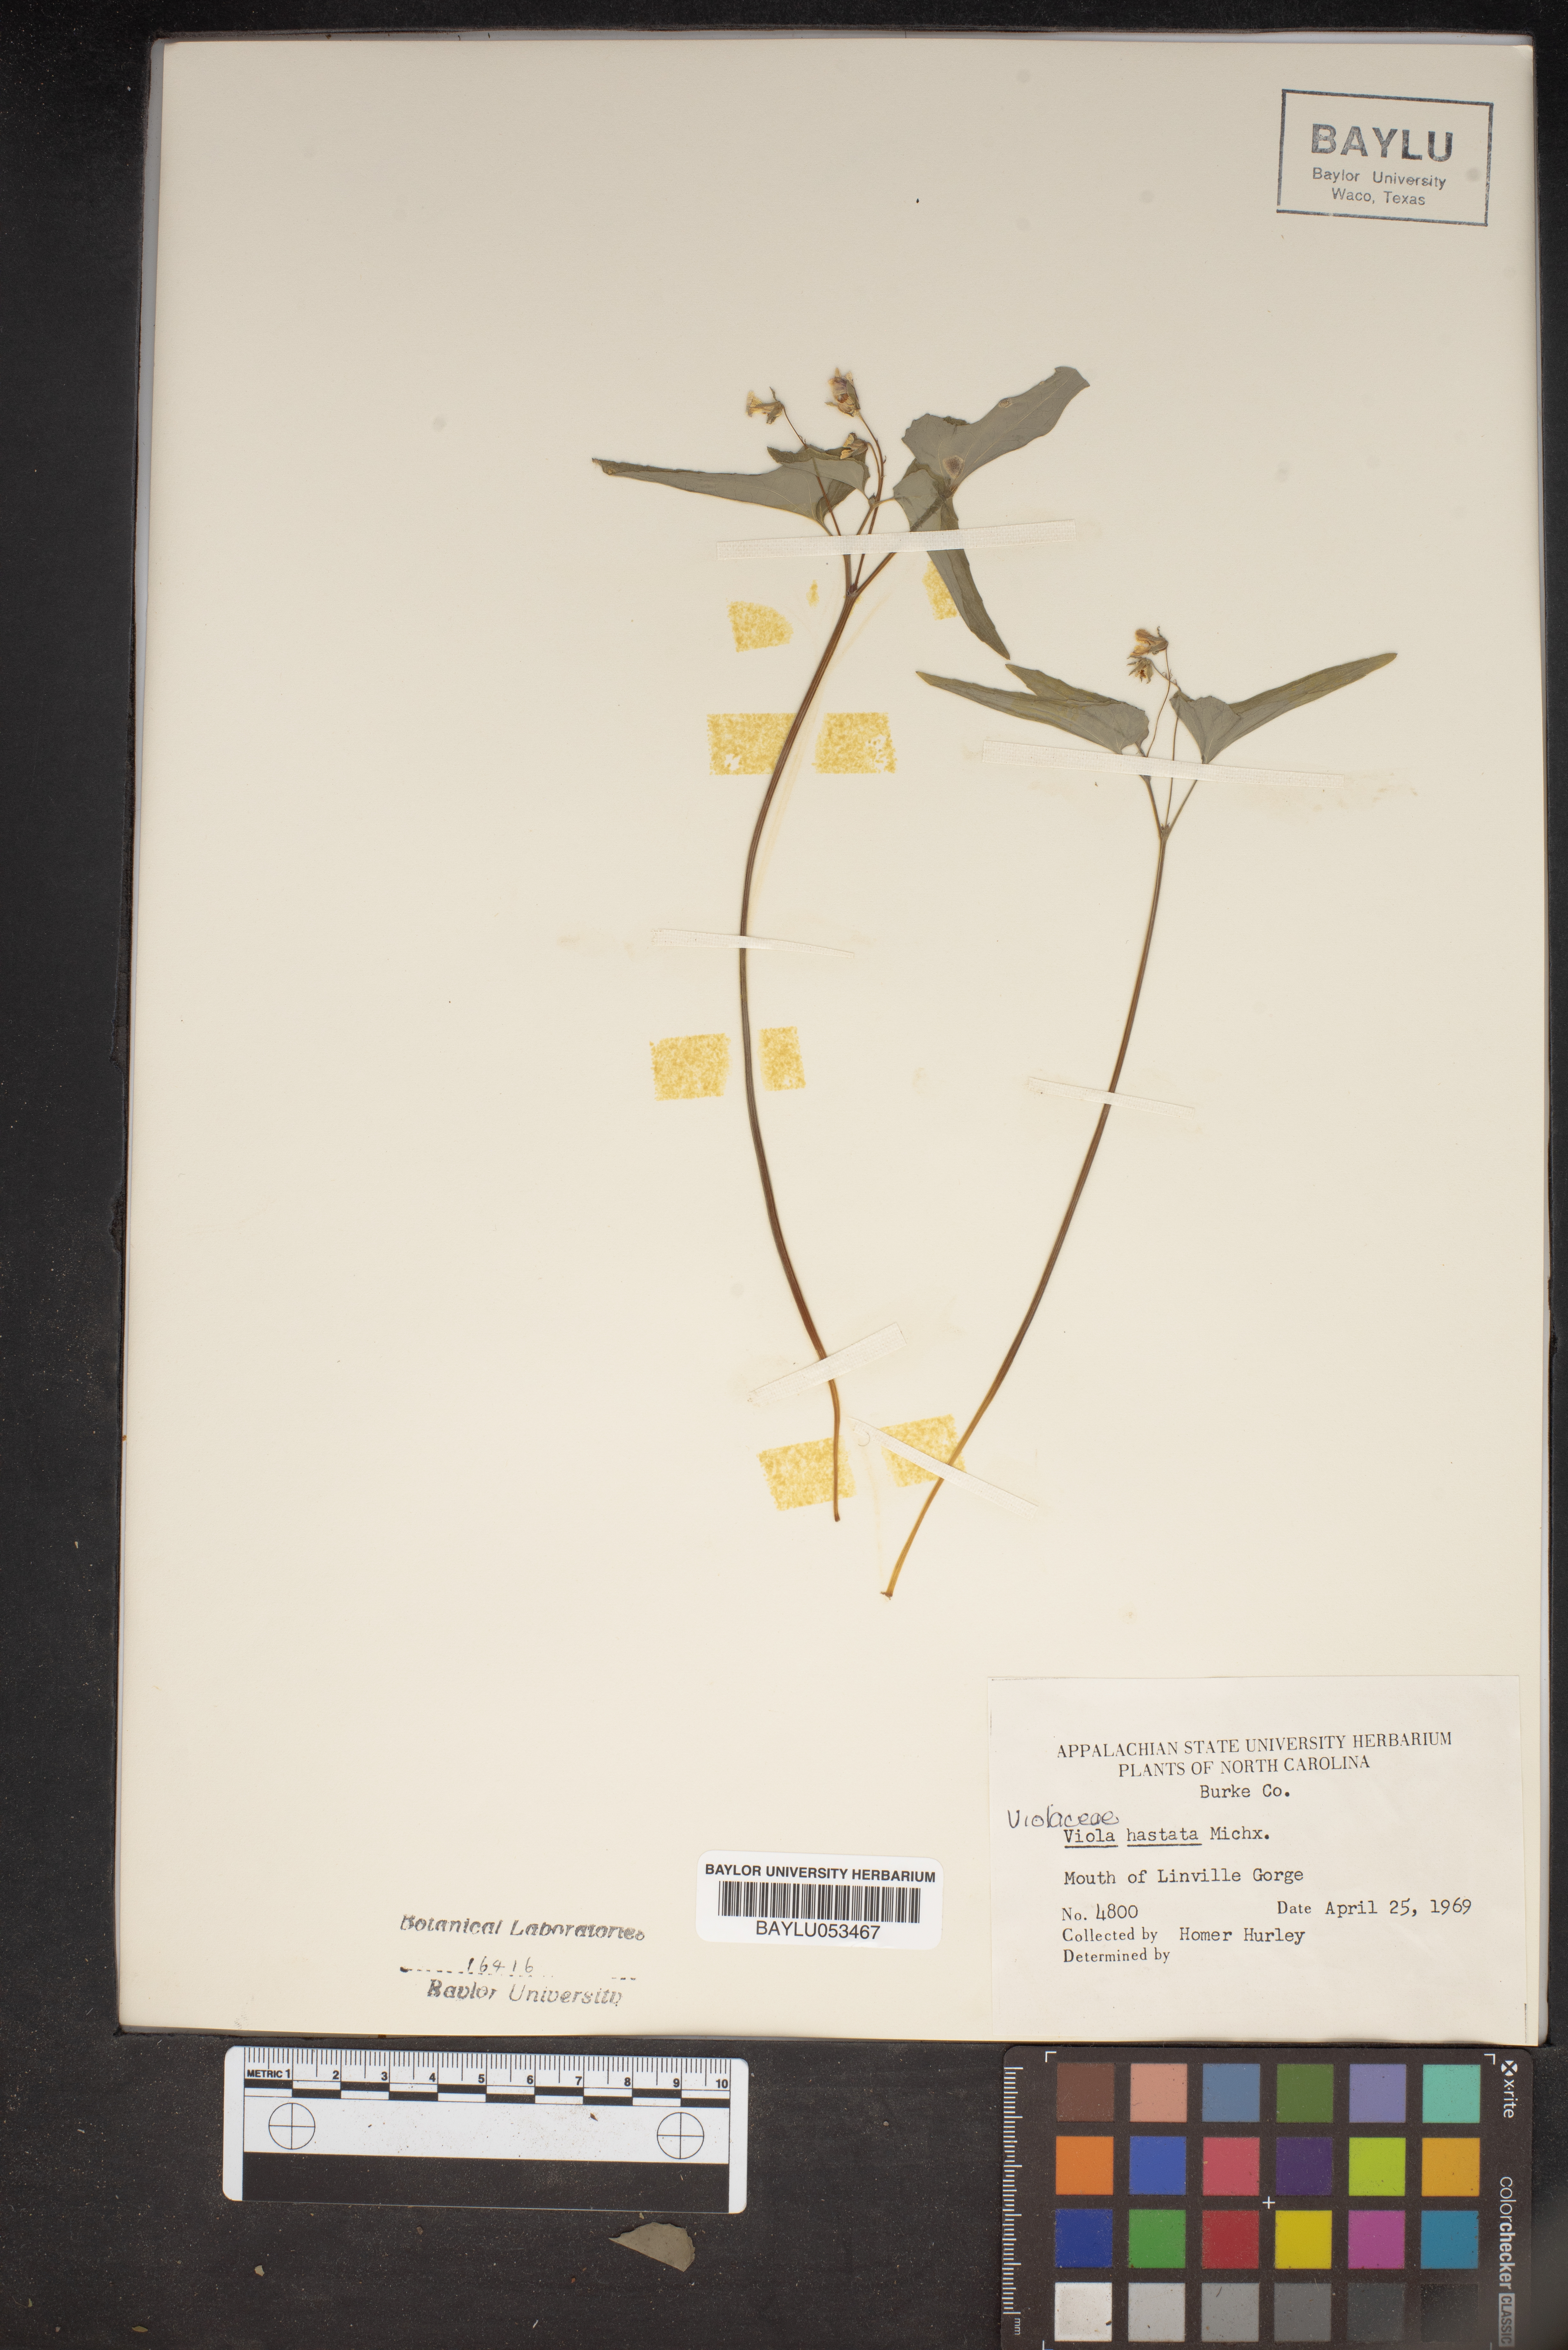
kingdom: Plantae
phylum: Tracheophyta
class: Magnoliopsida
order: Malpighiales
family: Violaceae
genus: Viola
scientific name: Viola hastata
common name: Spear-leaf violet
